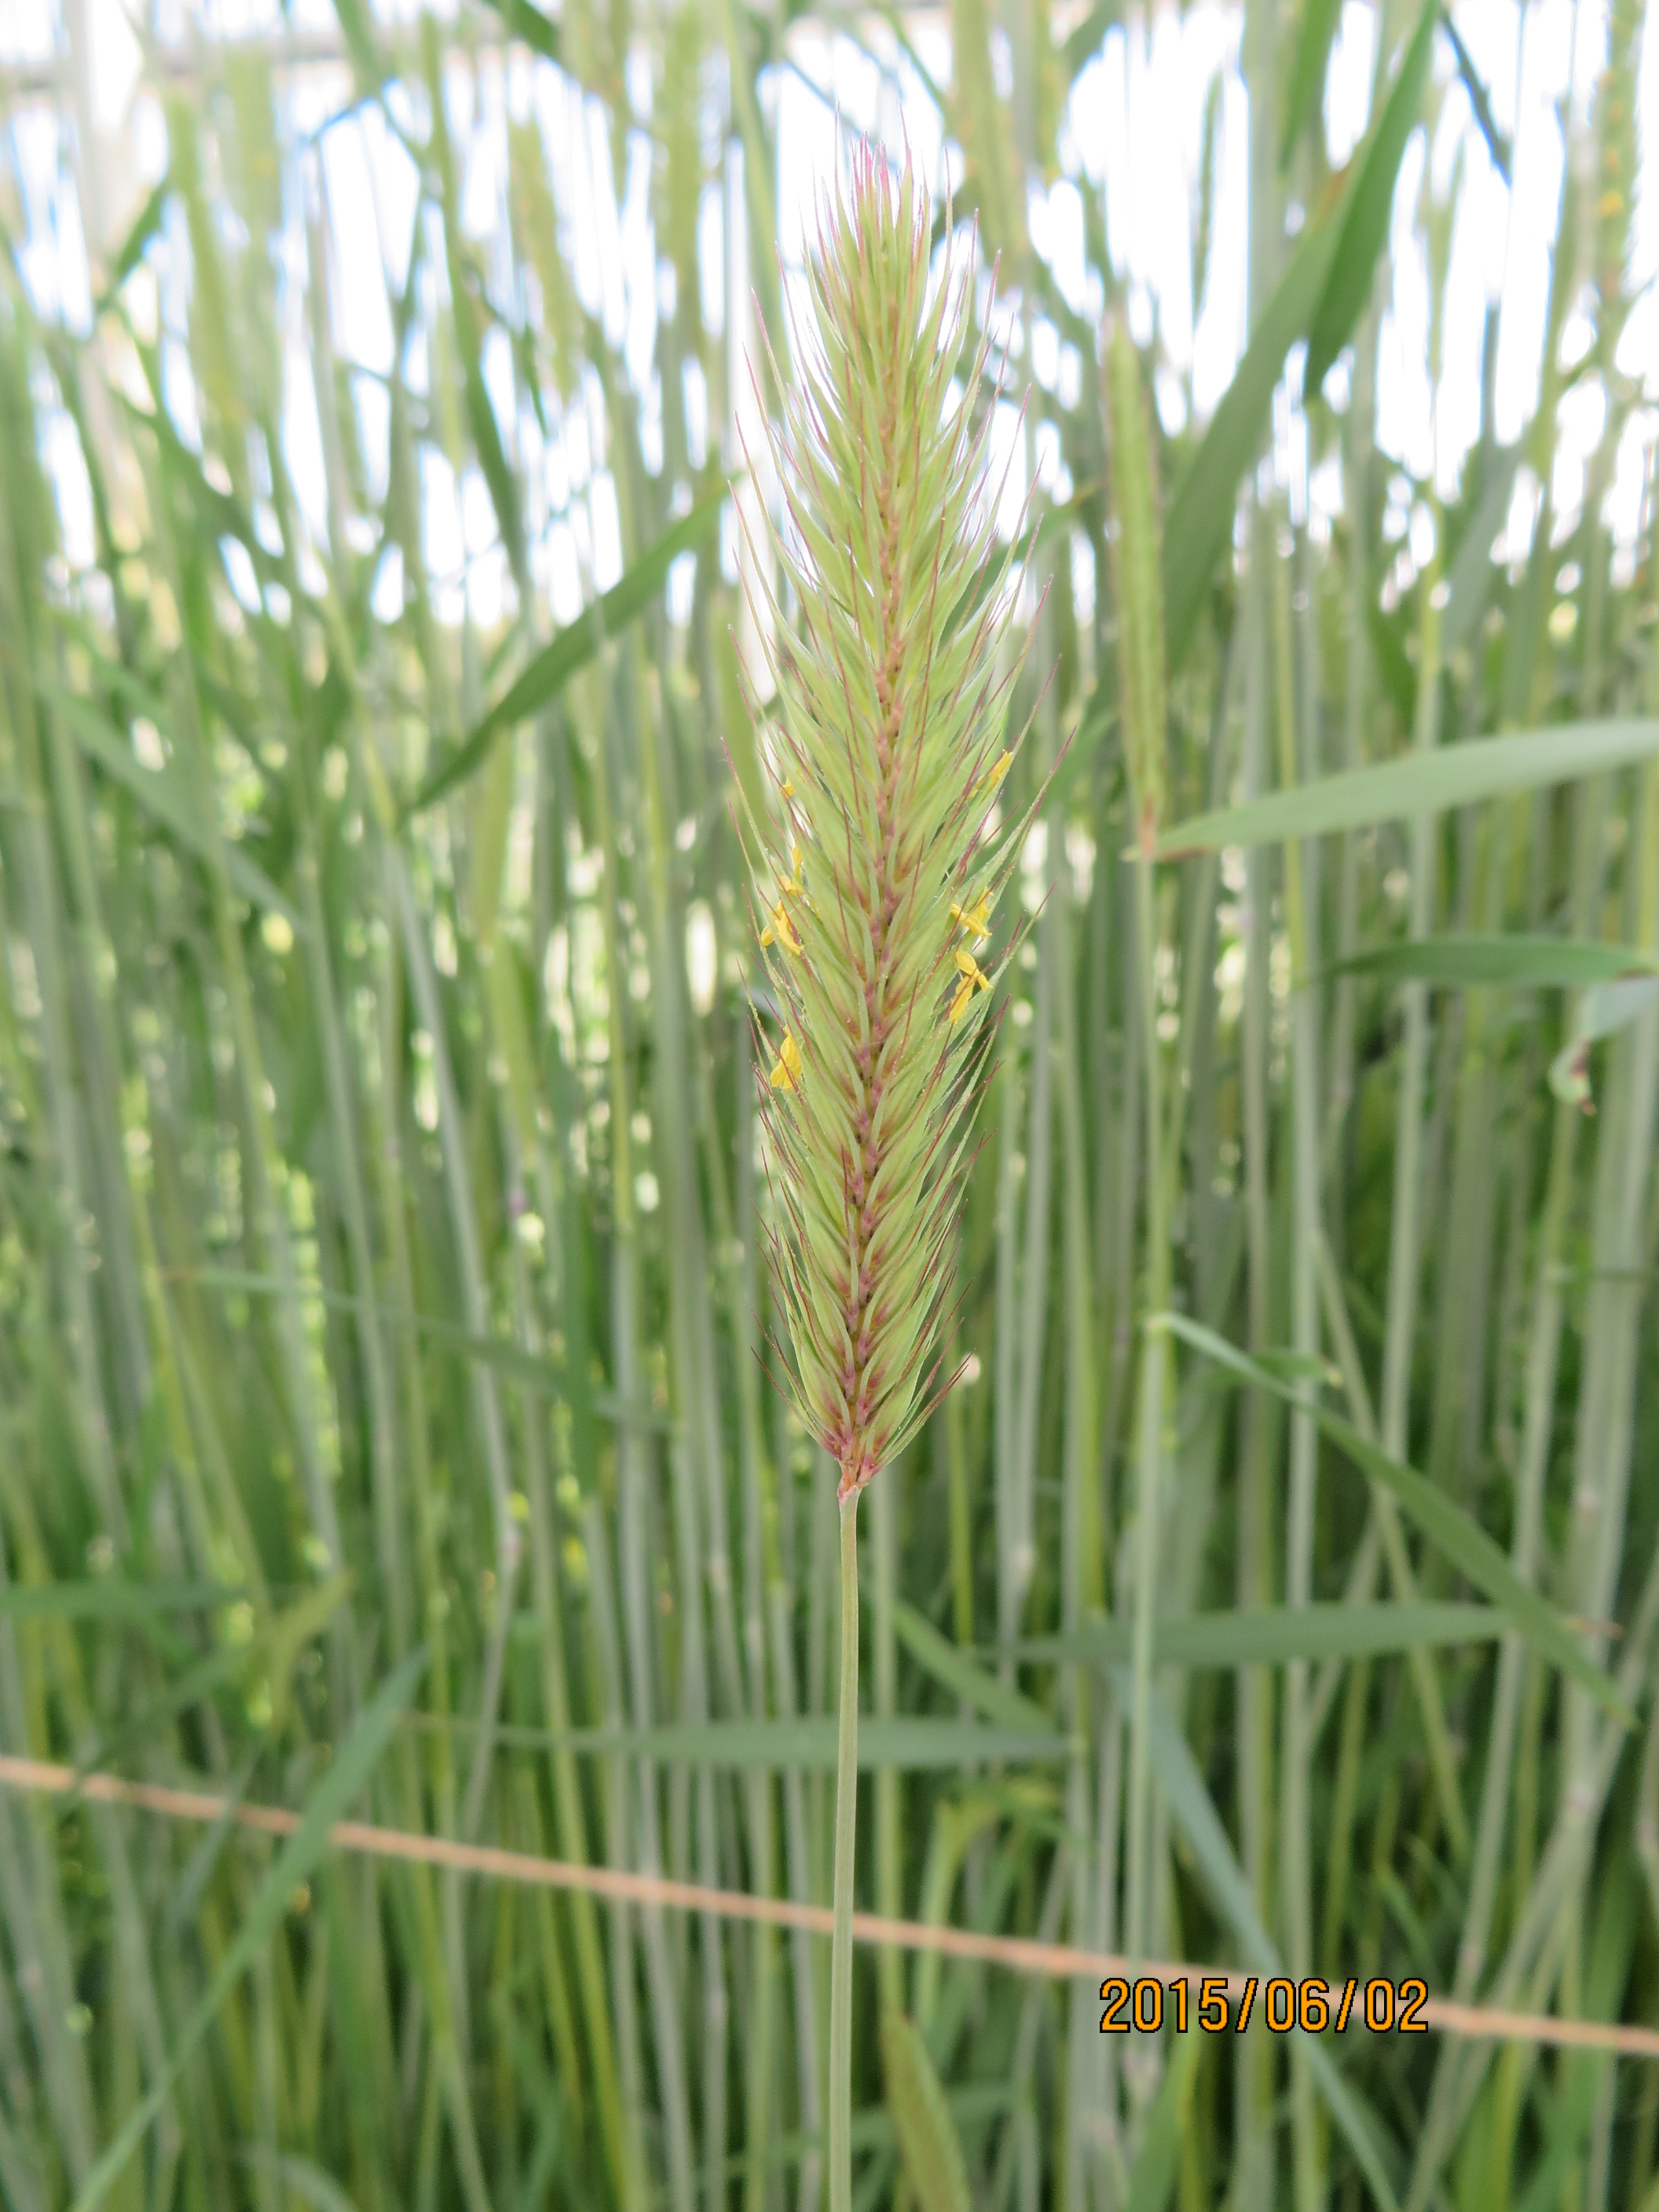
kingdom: Plantae
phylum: Tracheophyta
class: Liliopsida
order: Poales
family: Poaceae
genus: Hordeum
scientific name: Hordeum guatemalense
